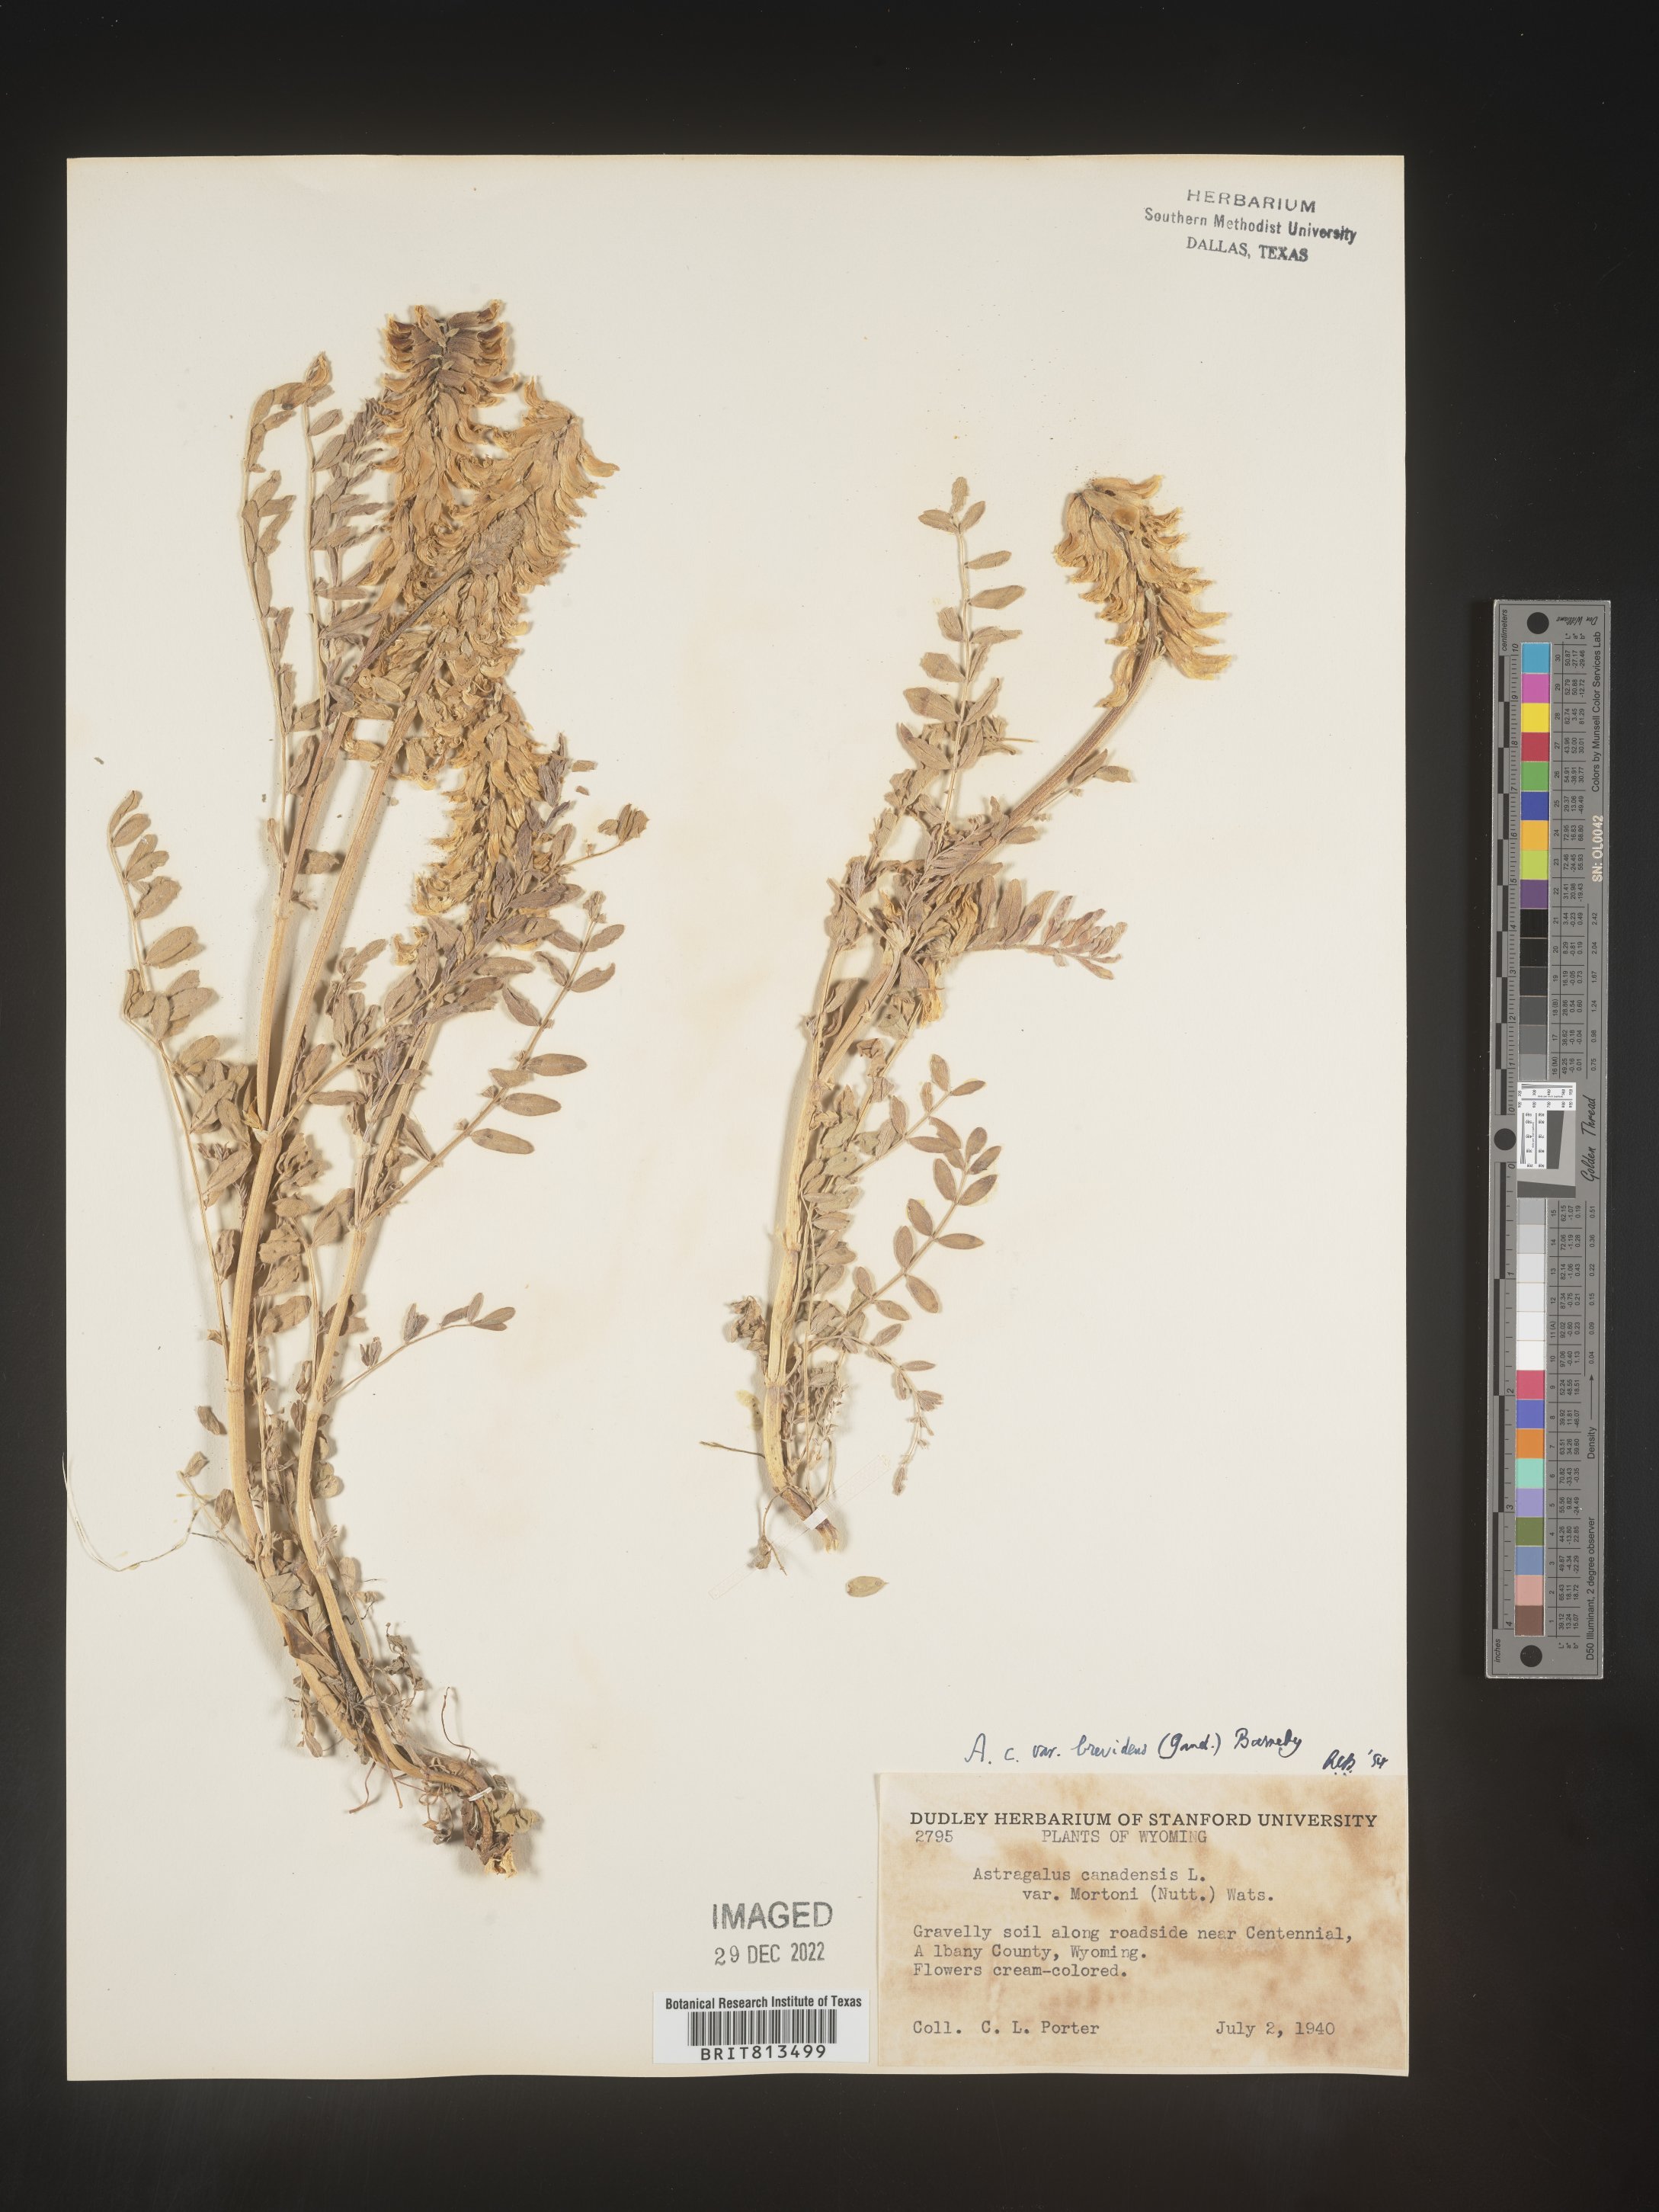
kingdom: Plantae
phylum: Tracheophyta
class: Magnoliopsida
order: Fabales
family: Fabaceae
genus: Astragalus
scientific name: Astragalus canadensis
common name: Canada milk-vetch
